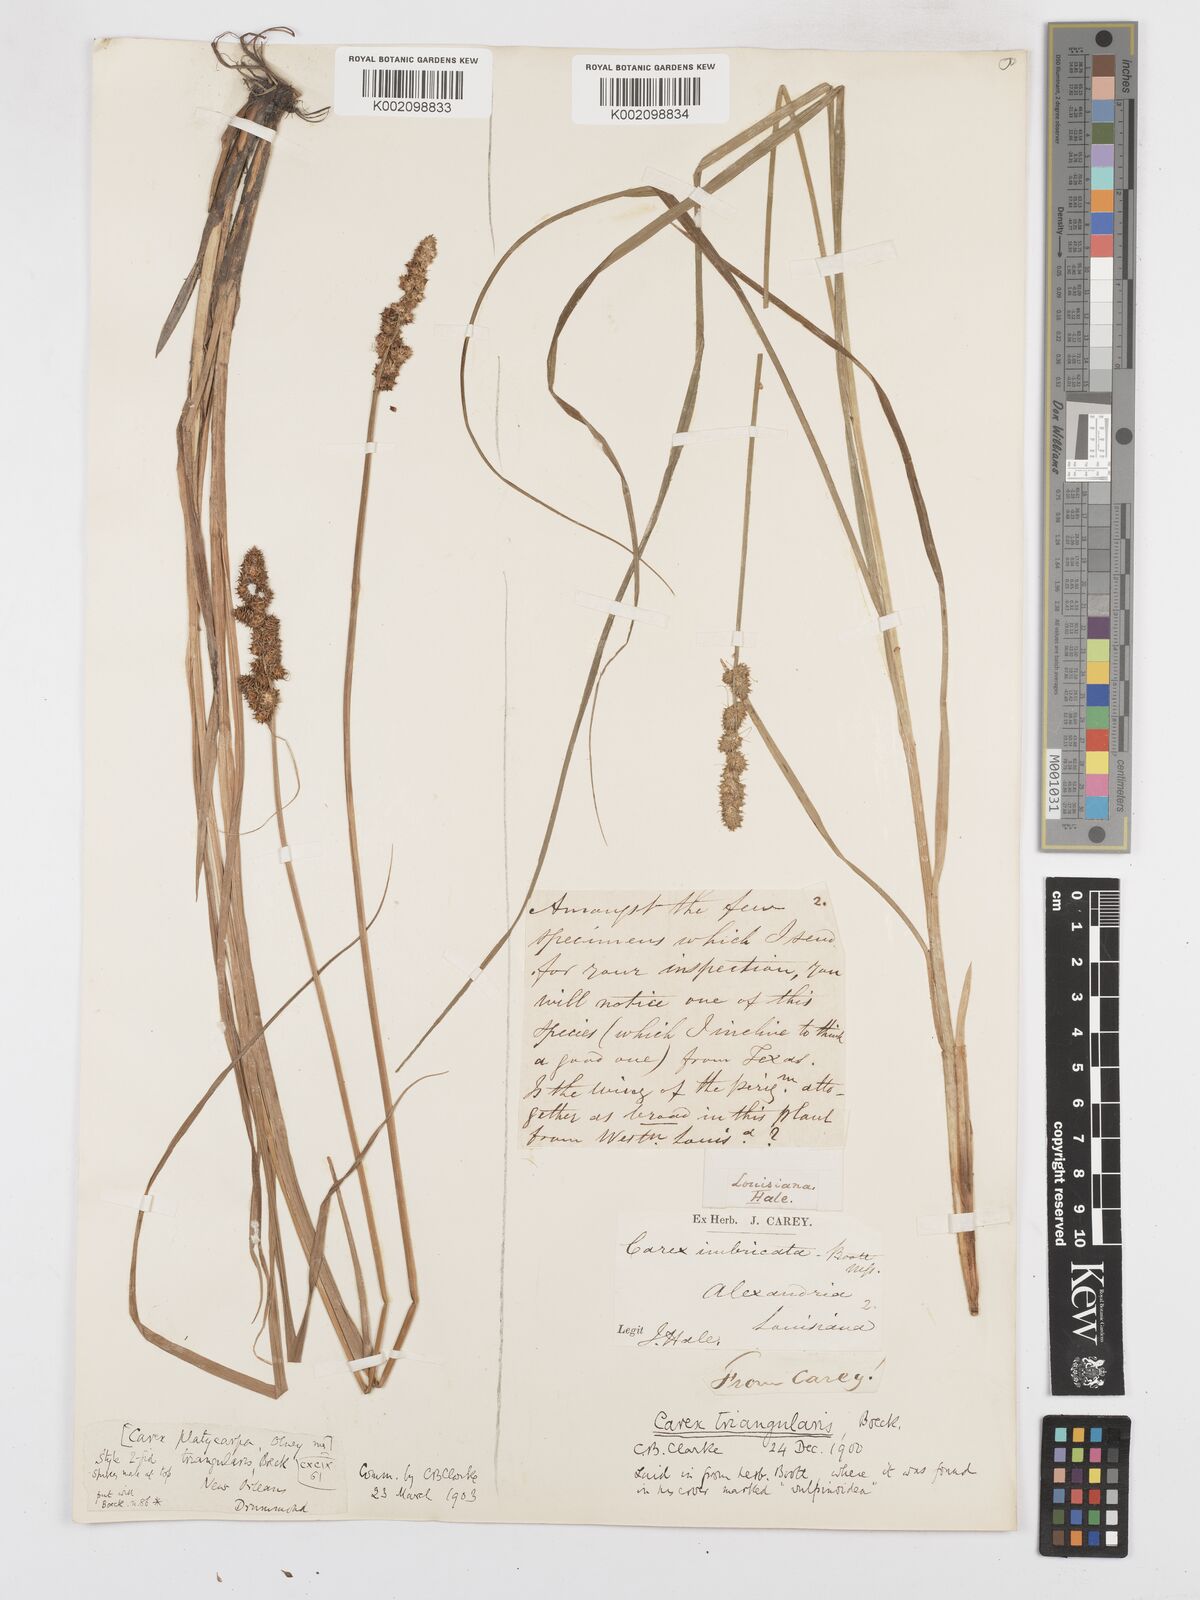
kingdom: Plantae
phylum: Tracheophyta
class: Liliopsida
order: Poales
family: Cyperaceae
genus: Carex
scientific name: Carex triangularis
